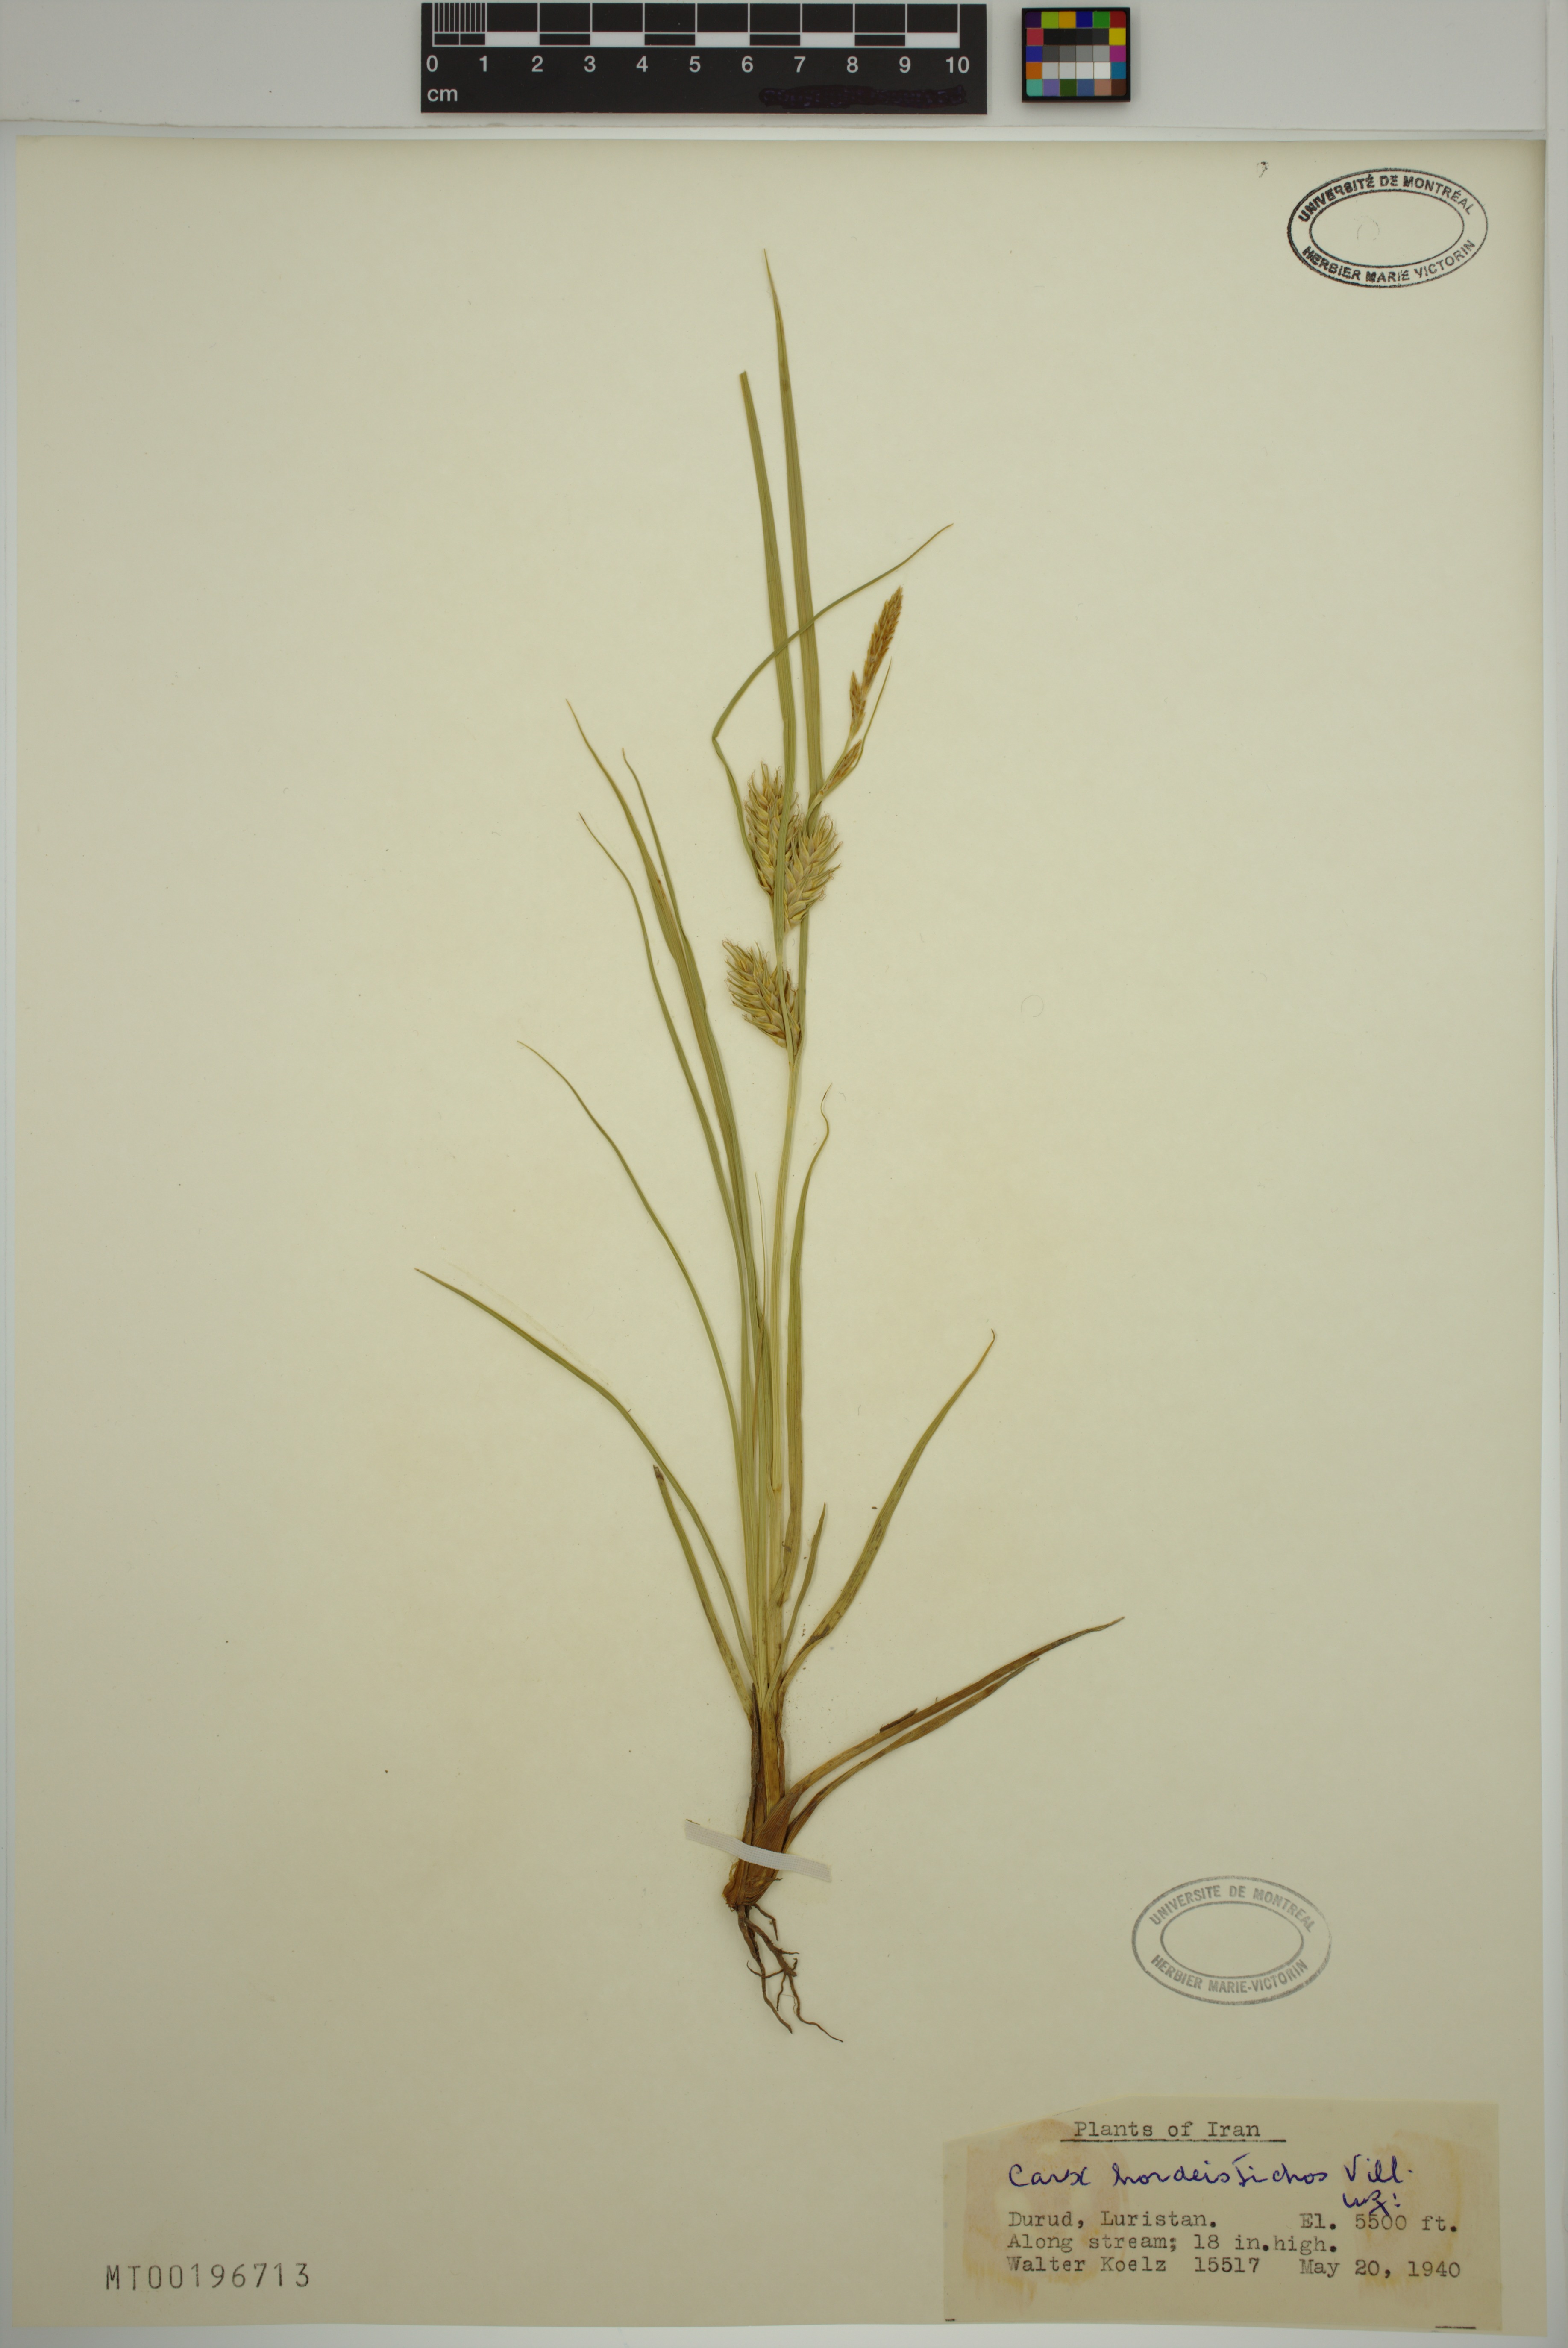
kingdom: Plantae
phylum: Tracheophyta
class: Liliopsida
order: Poales
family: Cyperaceae
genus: Carex
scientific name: Carex hordeistichos
